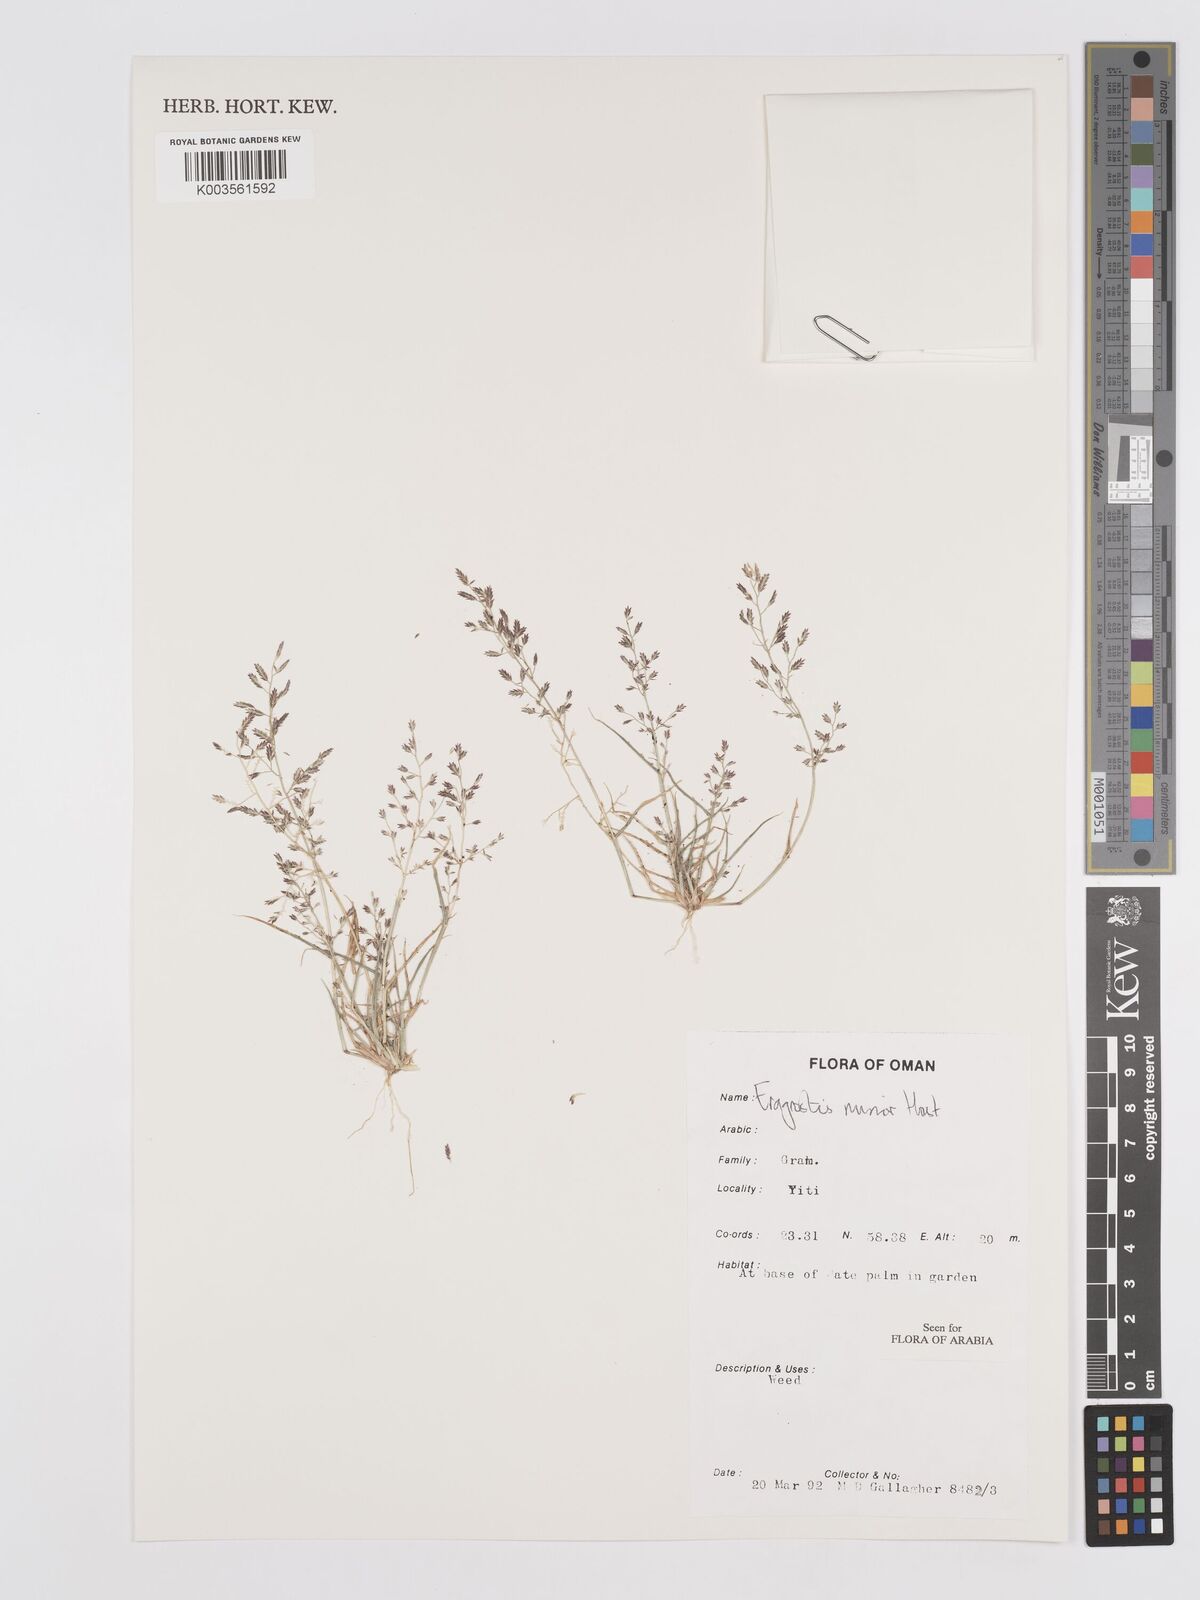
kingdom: Plantae
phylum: Tracheophyta
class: Liliopsida
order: Poales
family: Poaceae
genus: Eragrostis
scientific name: Eragrostis minor
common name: Small love-grass
